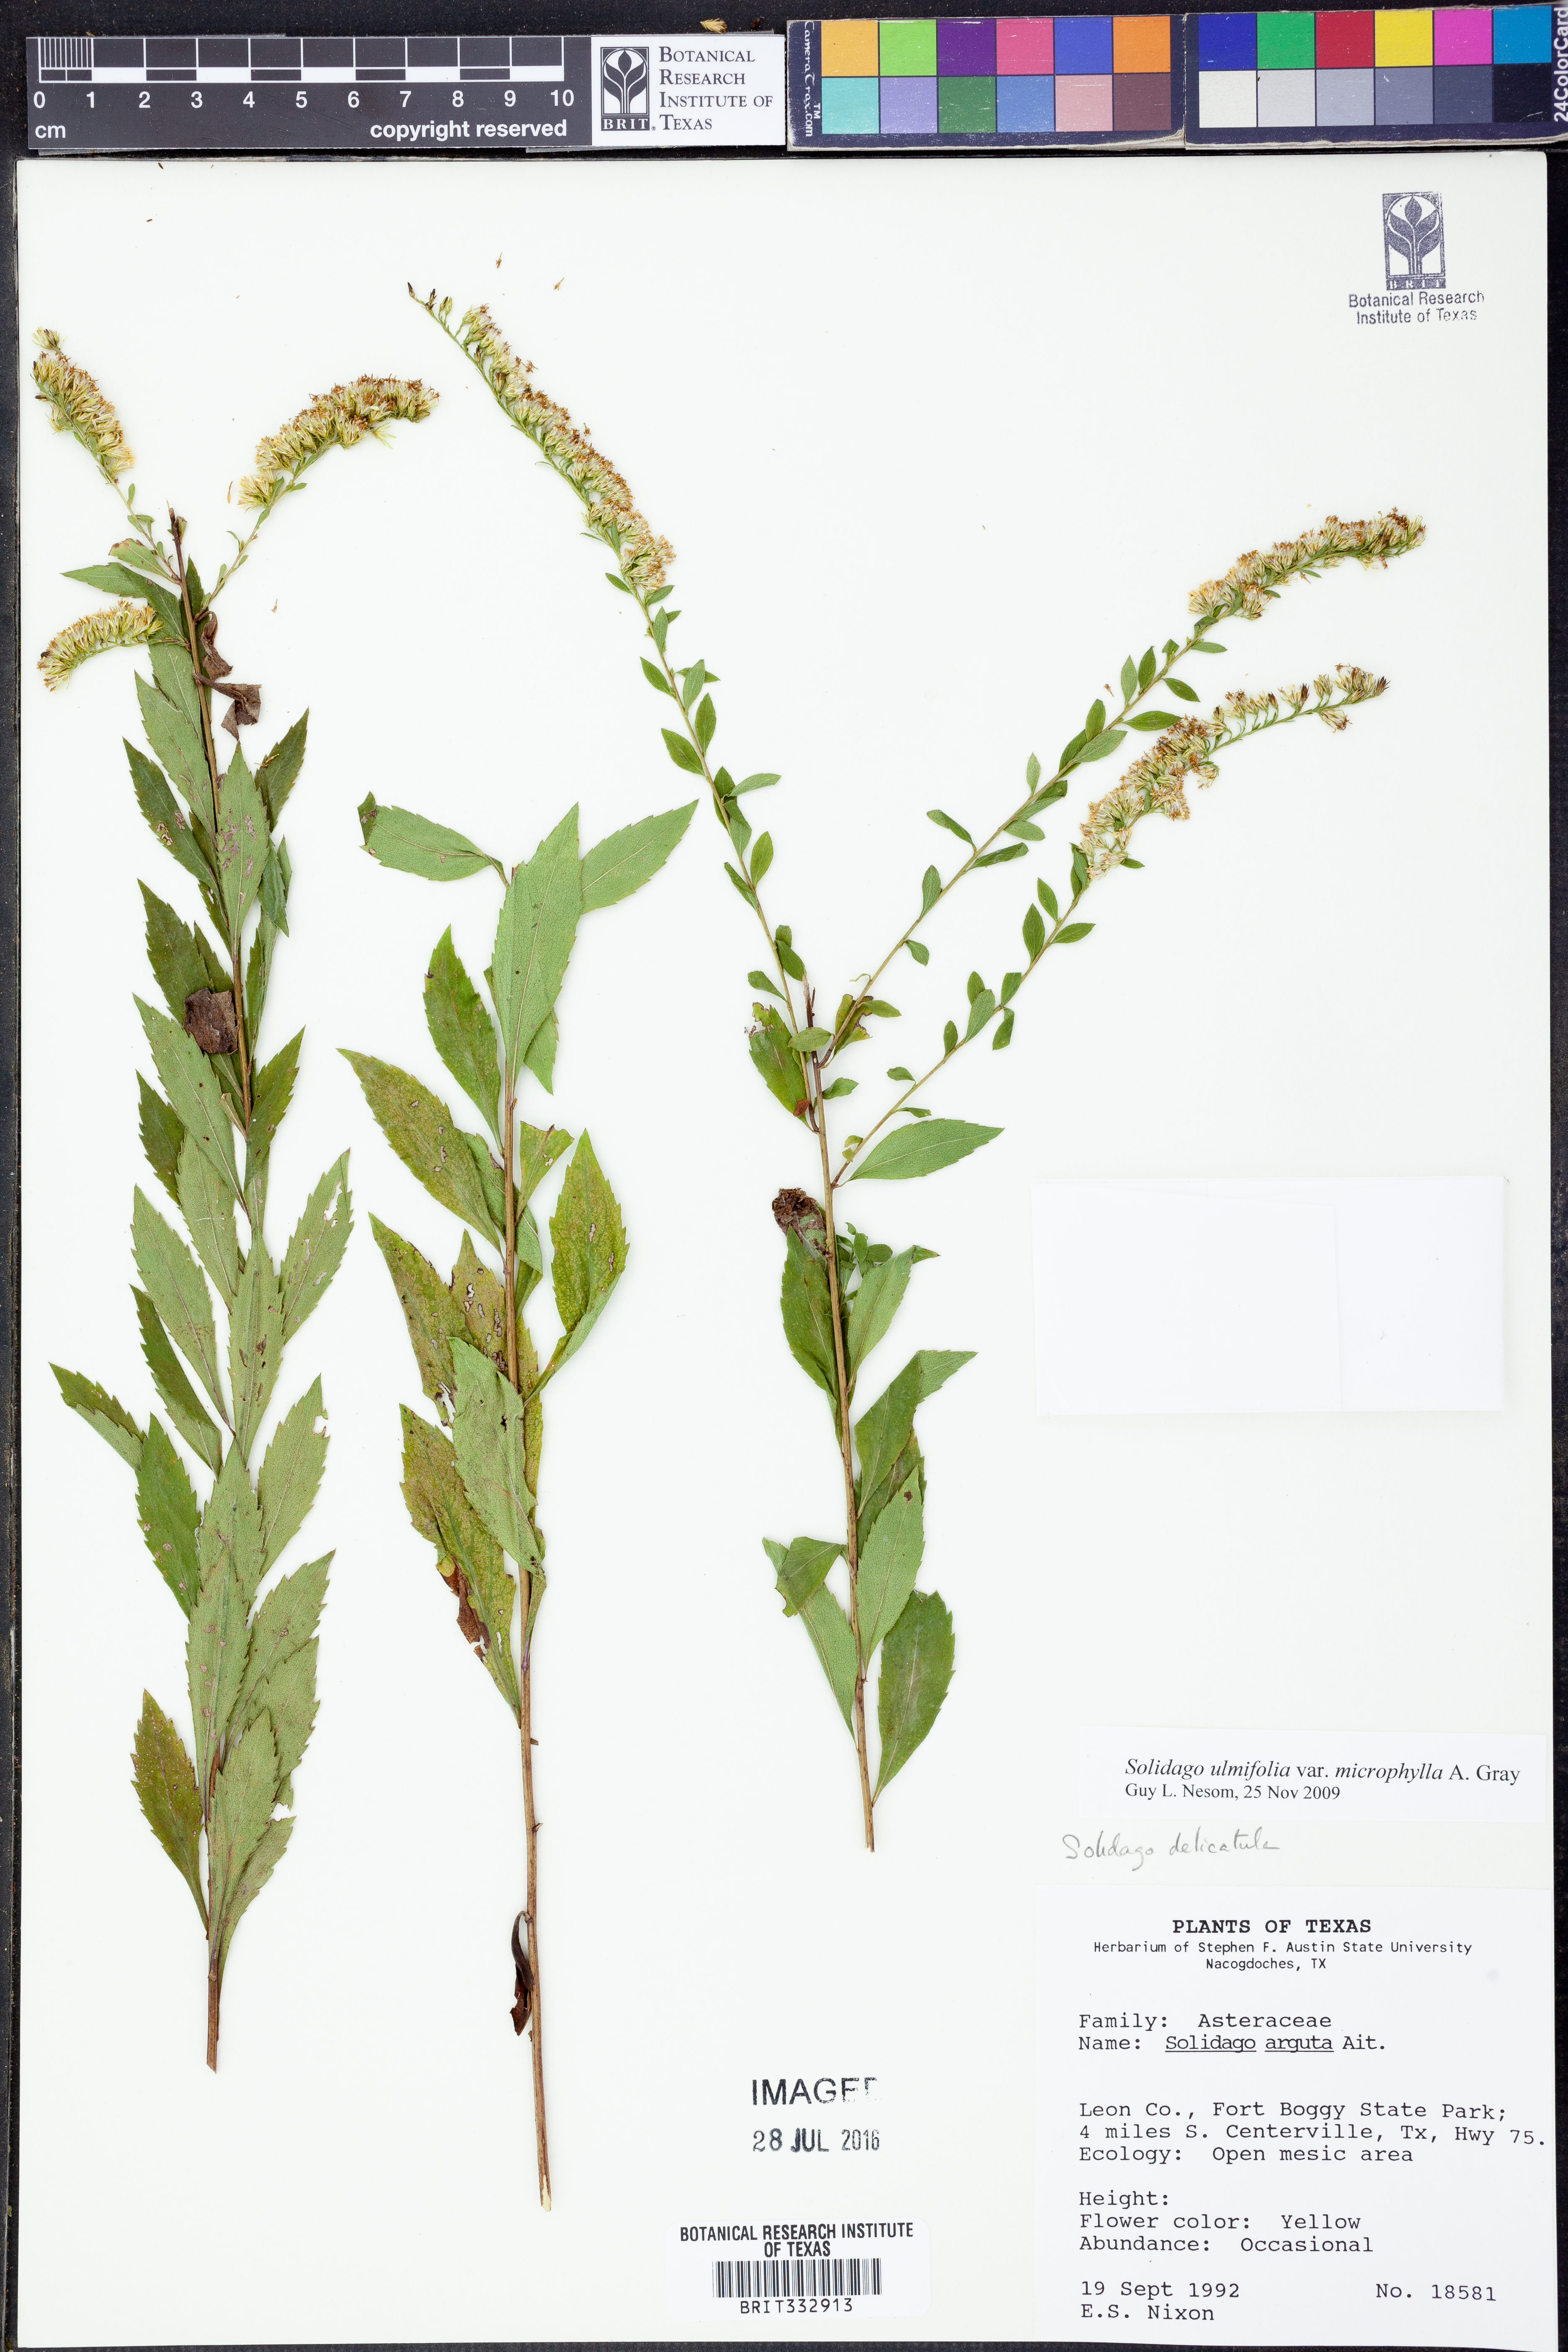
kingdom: Plantae
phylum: Tracheophyta
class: Magnoliopsida
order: Asterales
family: Asteraceae
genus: Solidago
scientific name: Solidago delicatula
